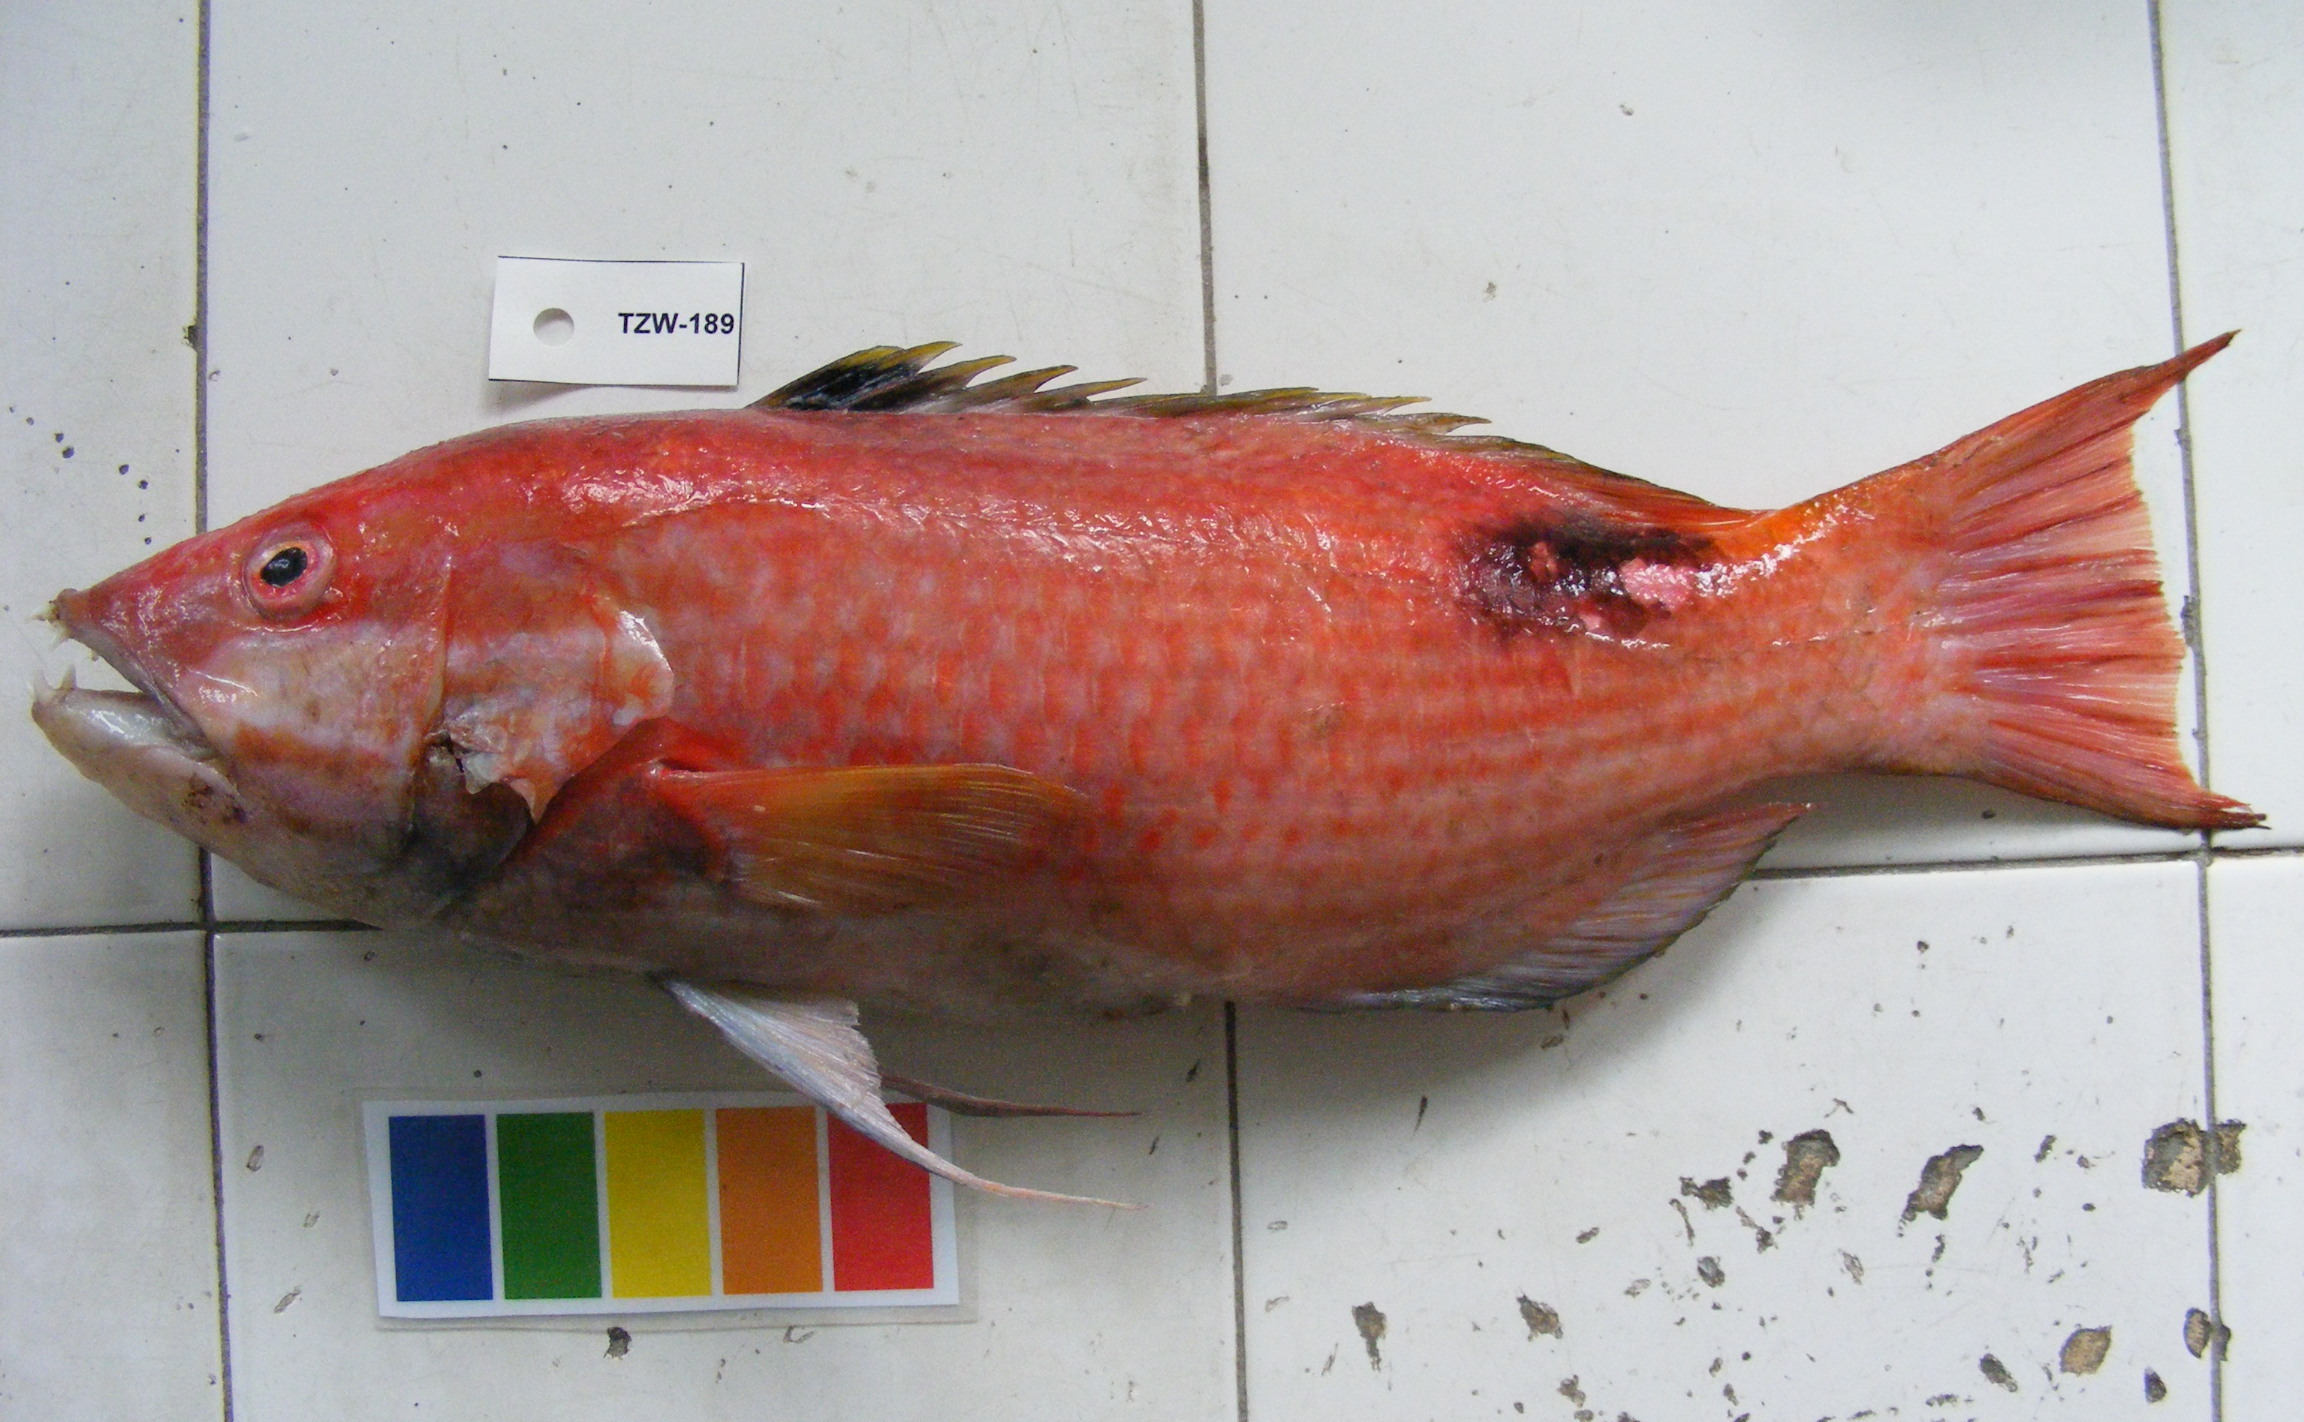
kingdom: Animalia
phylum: Chordata
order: Perciformes
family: Labridae
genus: Bodianus
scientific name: Bodianus bilunulatus
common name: Tarry hogfish
